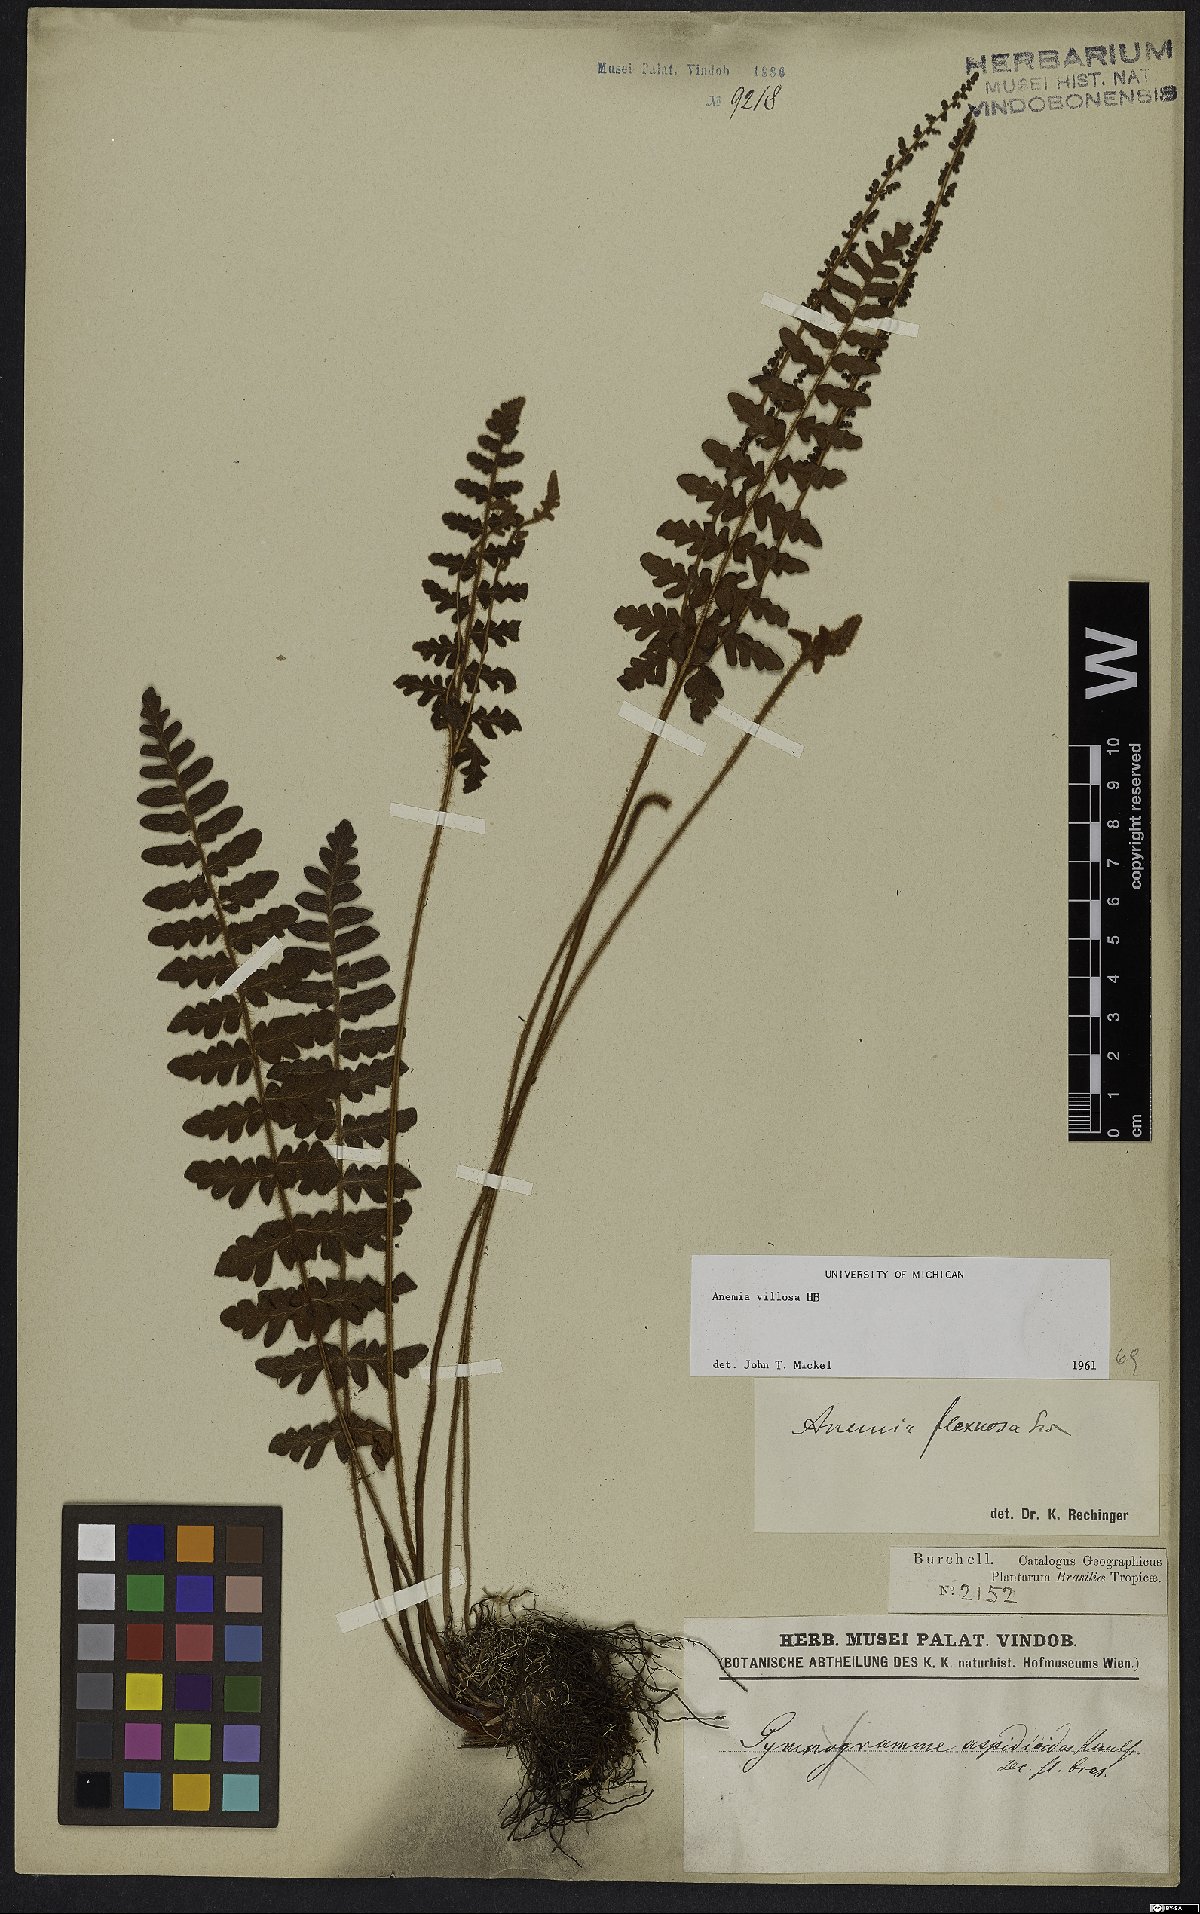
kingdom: Plantae
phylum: Tracheophyta
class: Polypodiopsida
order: Schizaeales
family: Anemiaceae
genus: Anemia
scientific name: Anemia villosa
